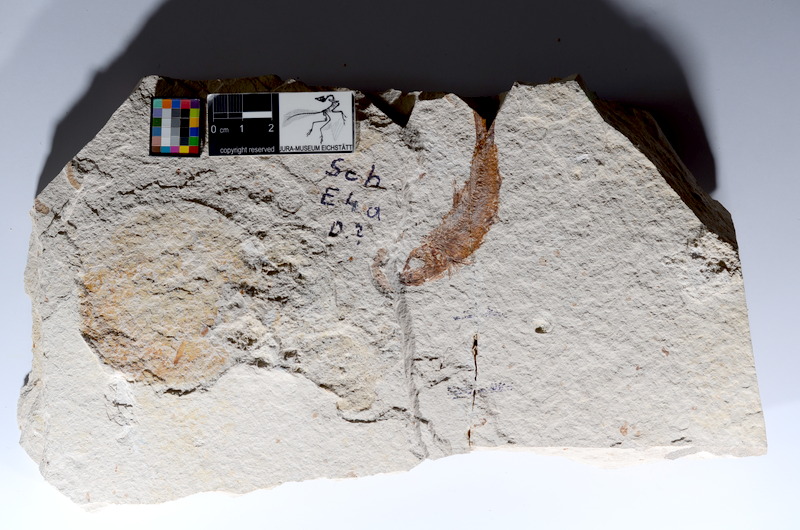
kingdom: Animalia
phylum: Chordata
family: Ascalaboidae
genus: Tharsis
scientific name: Tharsis dubius
